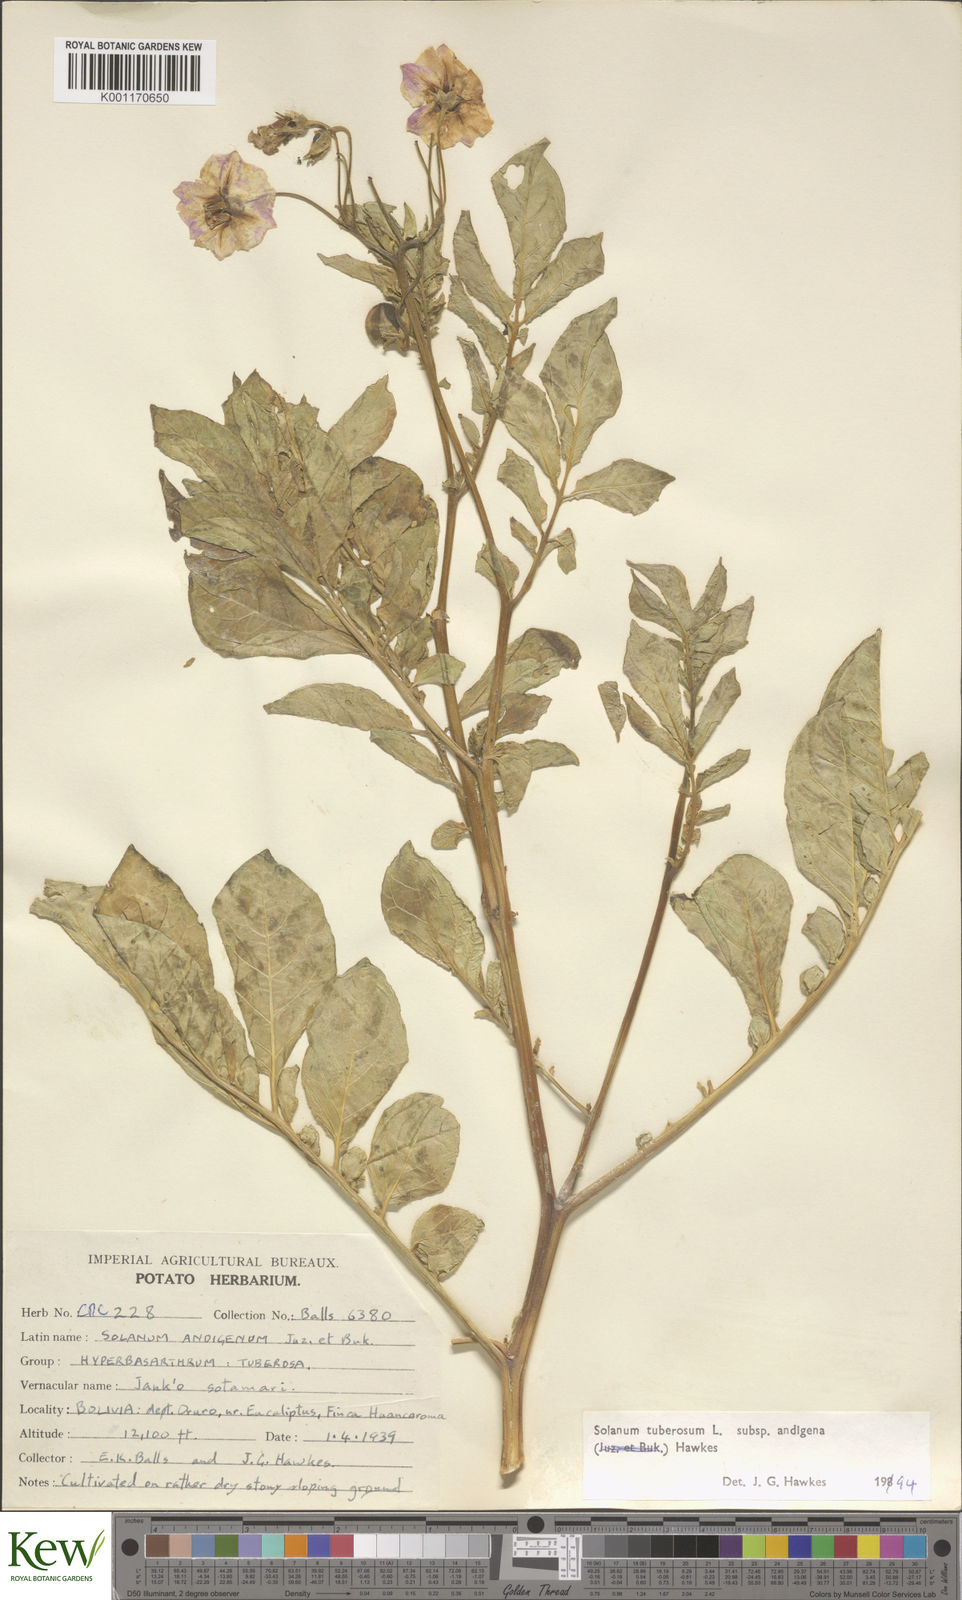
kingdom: Plantae
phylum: Tracheophyta
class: Magnoliopsida
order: Solanales
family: Solanaceae
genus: Solanum
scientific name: Solanum tuberosum
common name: Potato
